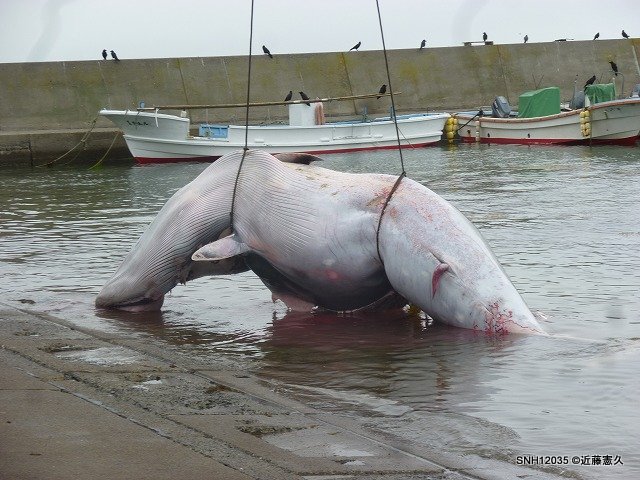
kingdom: Animalia
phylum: Chordata
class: Mammalia
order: Cetacea
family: Balaenopteridae
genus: Balaenoptera
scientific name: Balaenoptera acutorostrata
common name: Minke whale
